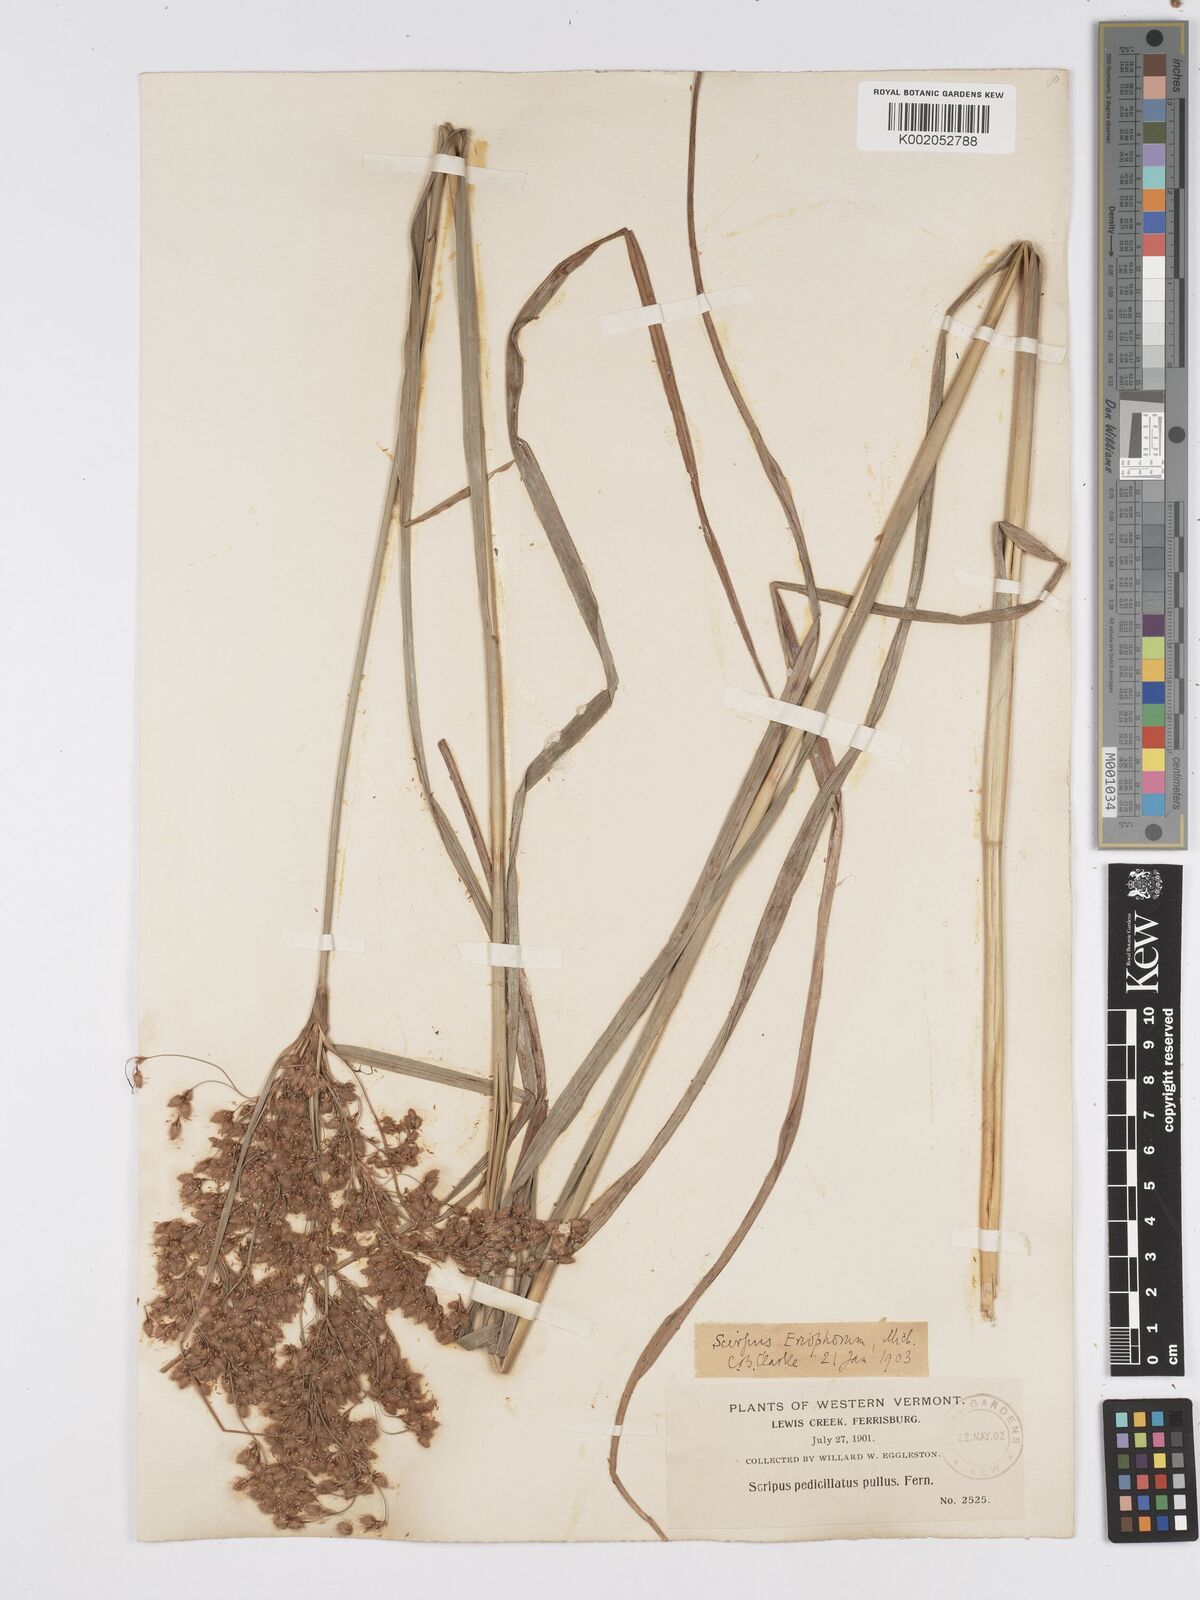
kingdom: Plantae
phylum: Tracheophyta
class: Liliopsida
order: Poales
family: Cyperaceae
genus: Scirpus
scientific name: Scirpus cyperinus
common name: Black-sheathed bulrush
